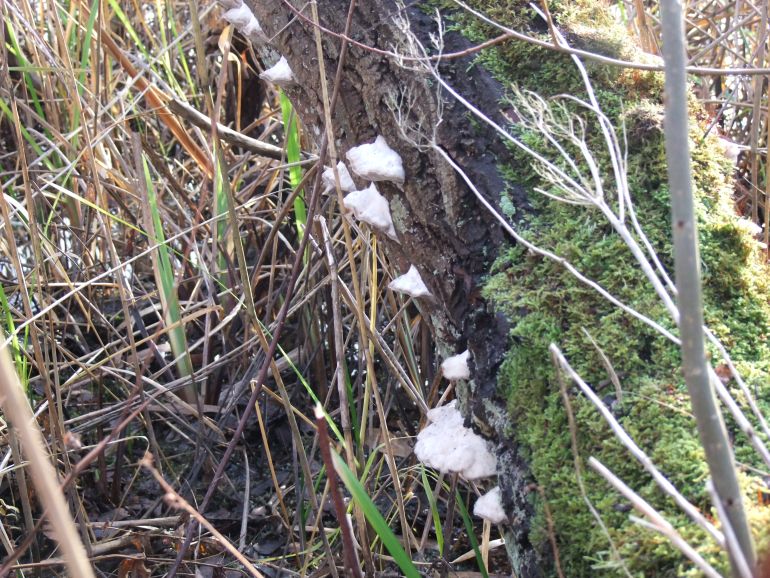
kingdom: Fungi
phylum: Basidiomycota
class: Agaricomycetes
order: Polyporales
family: Polyporaceae
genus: Trametes
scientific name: Trametes suaveolens
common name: vellugtende læderporesvamp
